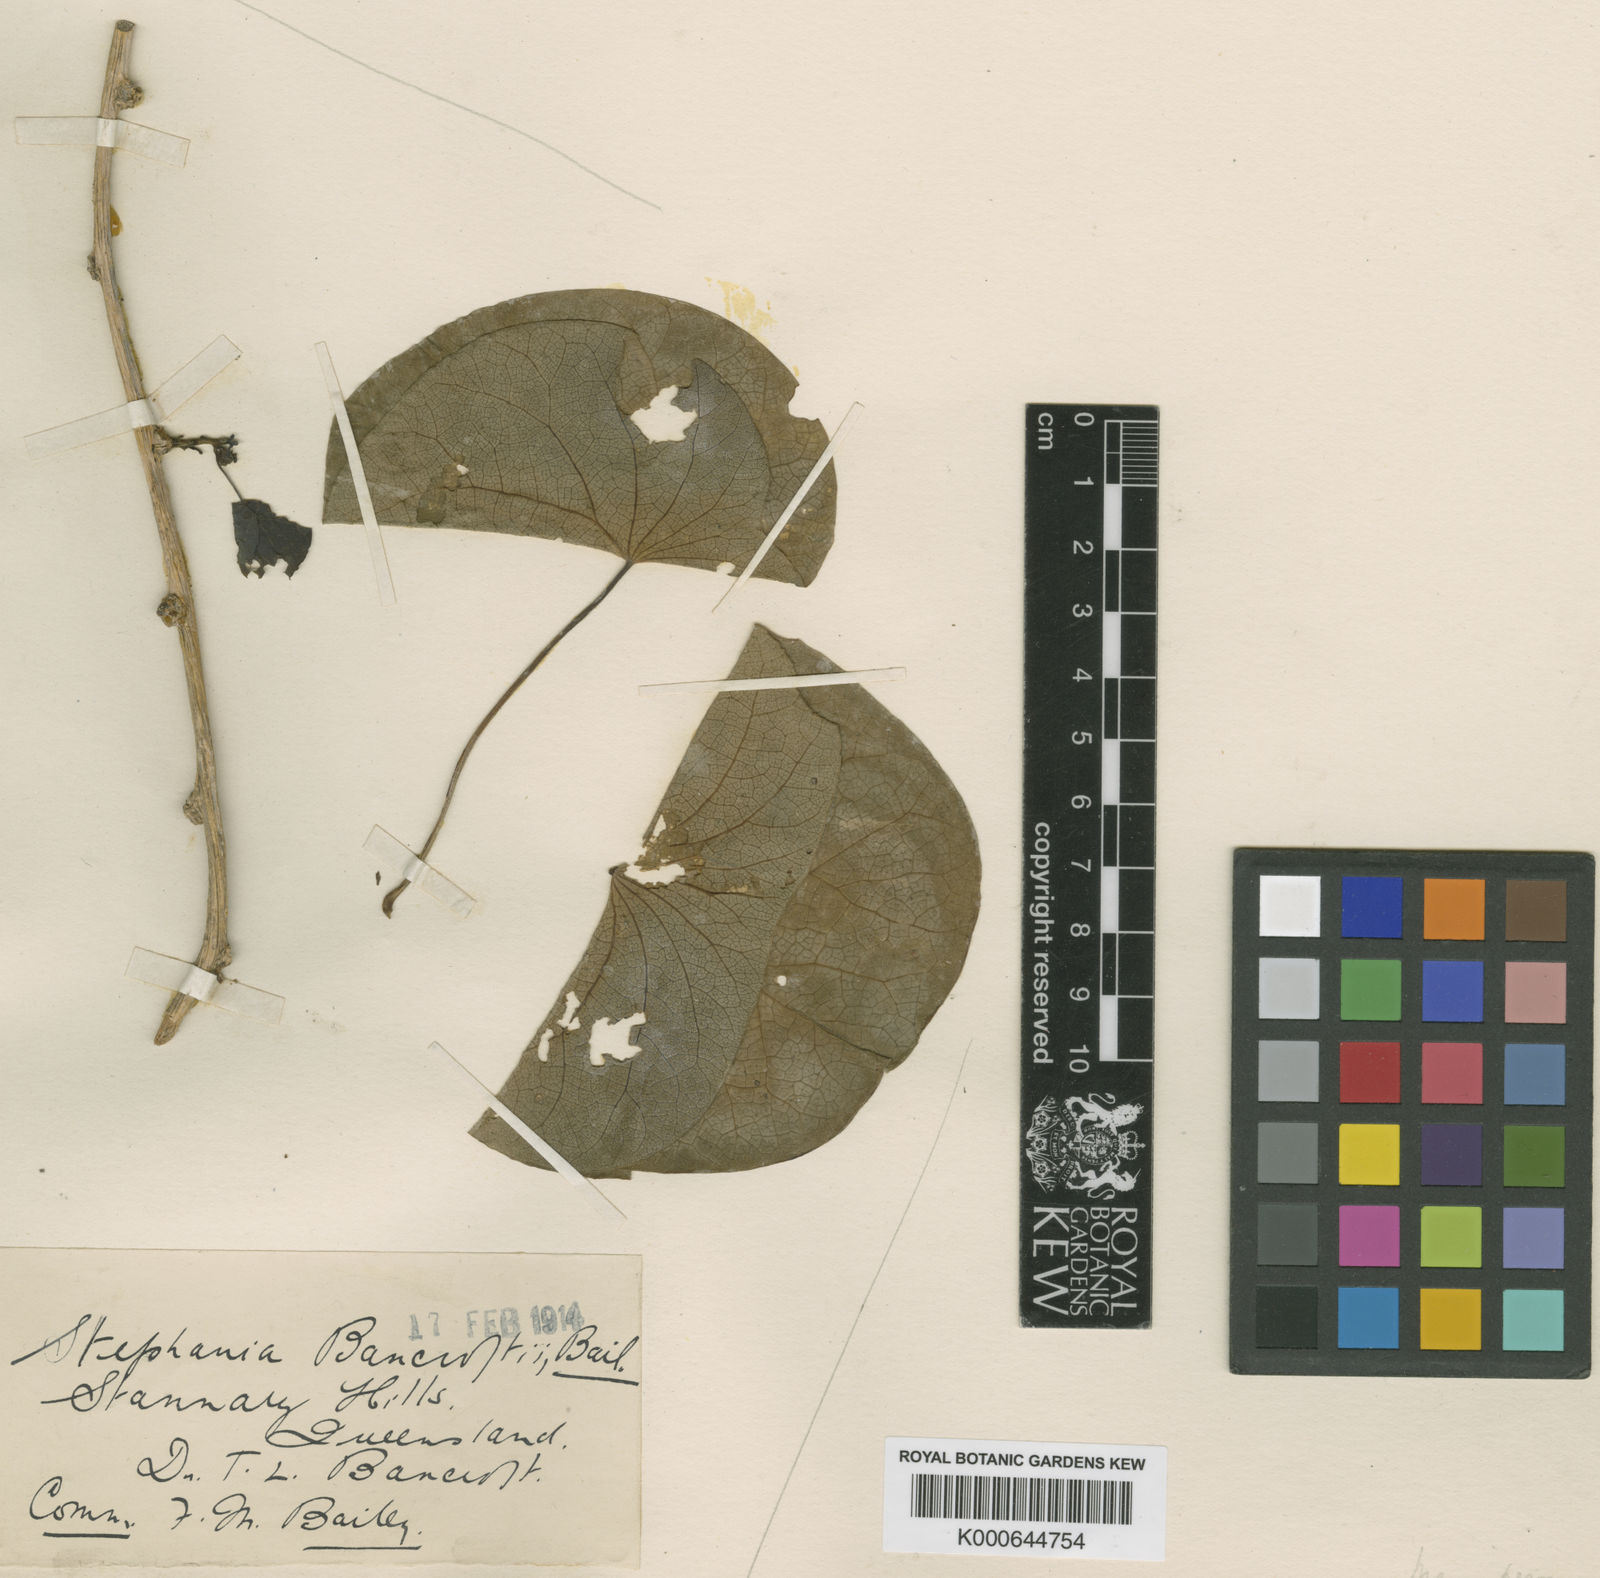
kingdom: Plantae
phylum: Tracheophyta
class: Magnoliopsida
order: Ranunculales
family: Menispermaceae
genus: Stephania
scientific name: Stephania bancroftii
